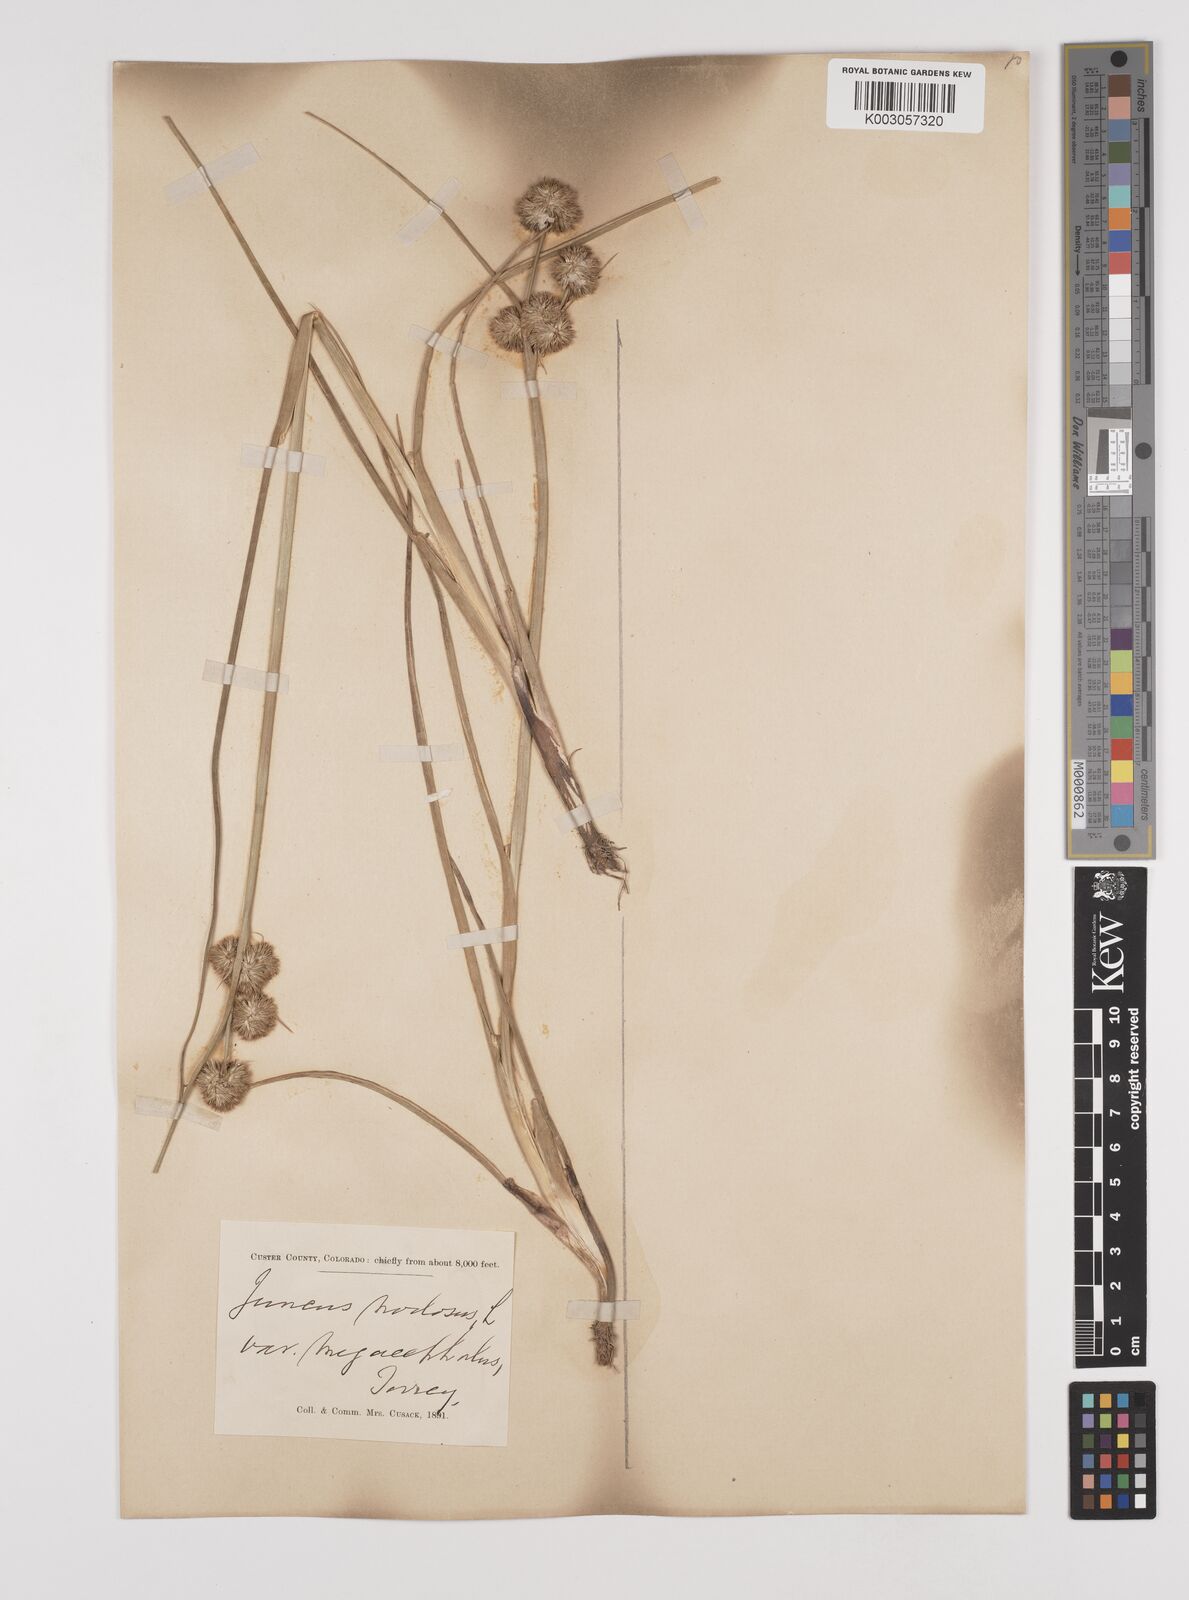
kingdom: Plantae
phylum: Tracheophyta
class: Liliopsida
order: Poales
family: Juncaceae
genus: Juncus
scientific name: Juncus nodosus
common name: Knotted rush
